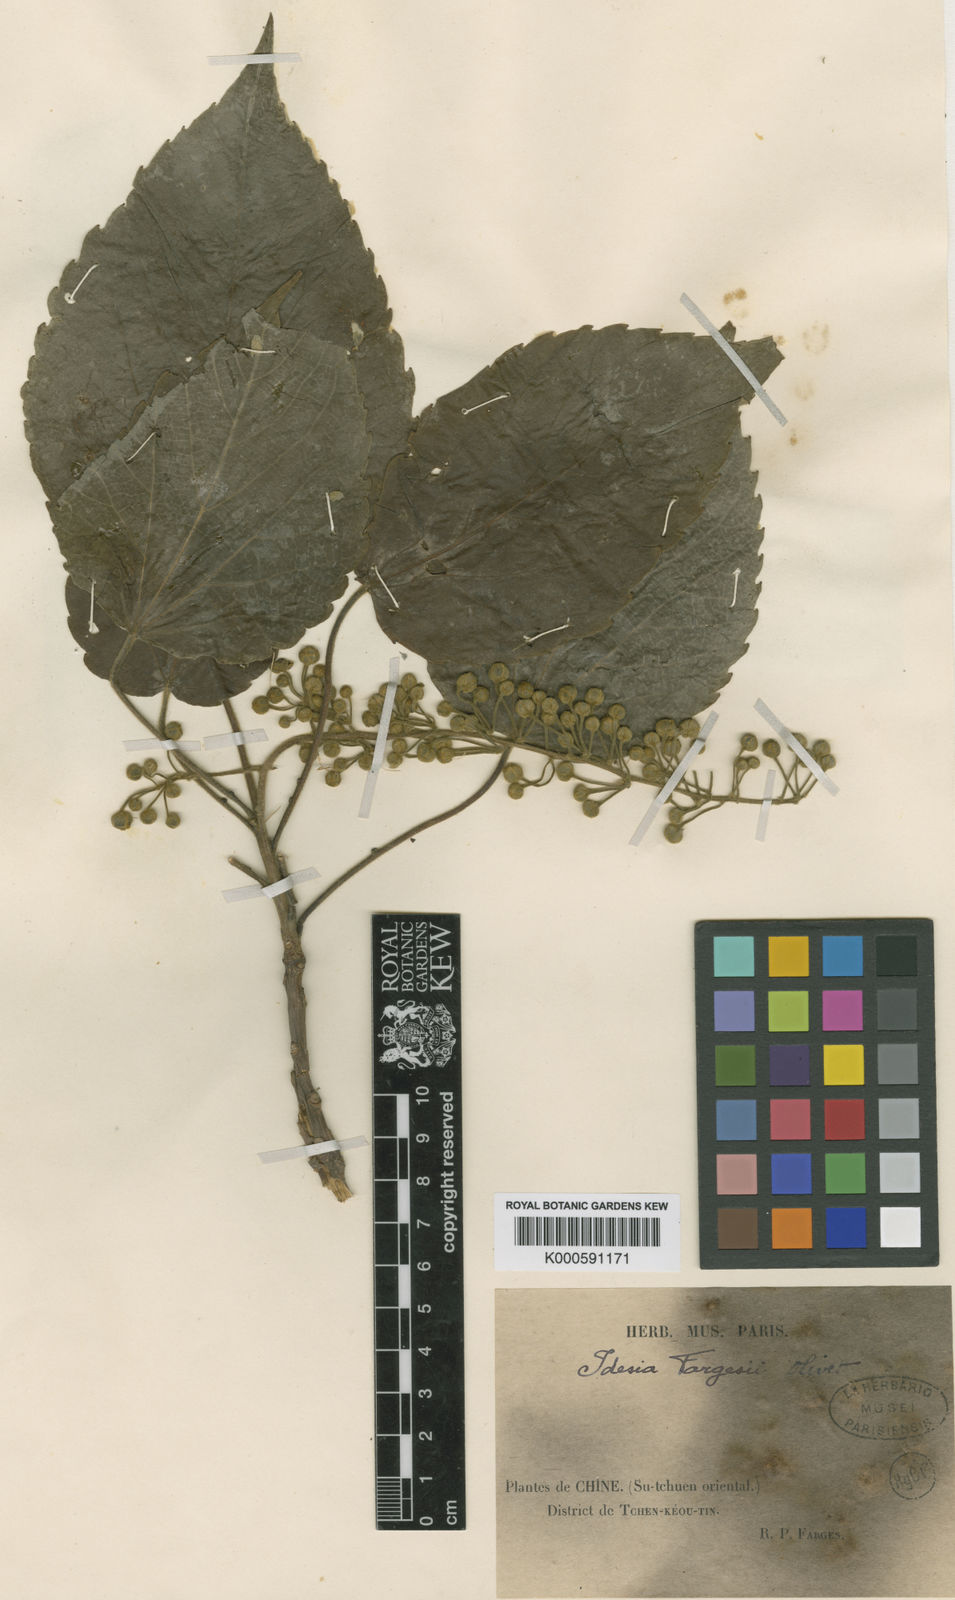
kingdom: Plantae
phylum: Tracheophyta
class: Magnoliopsida
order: Malpighiales
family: Salicaceae
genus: Idesia
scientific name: Idesia polycarpa
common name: Idesia tree
